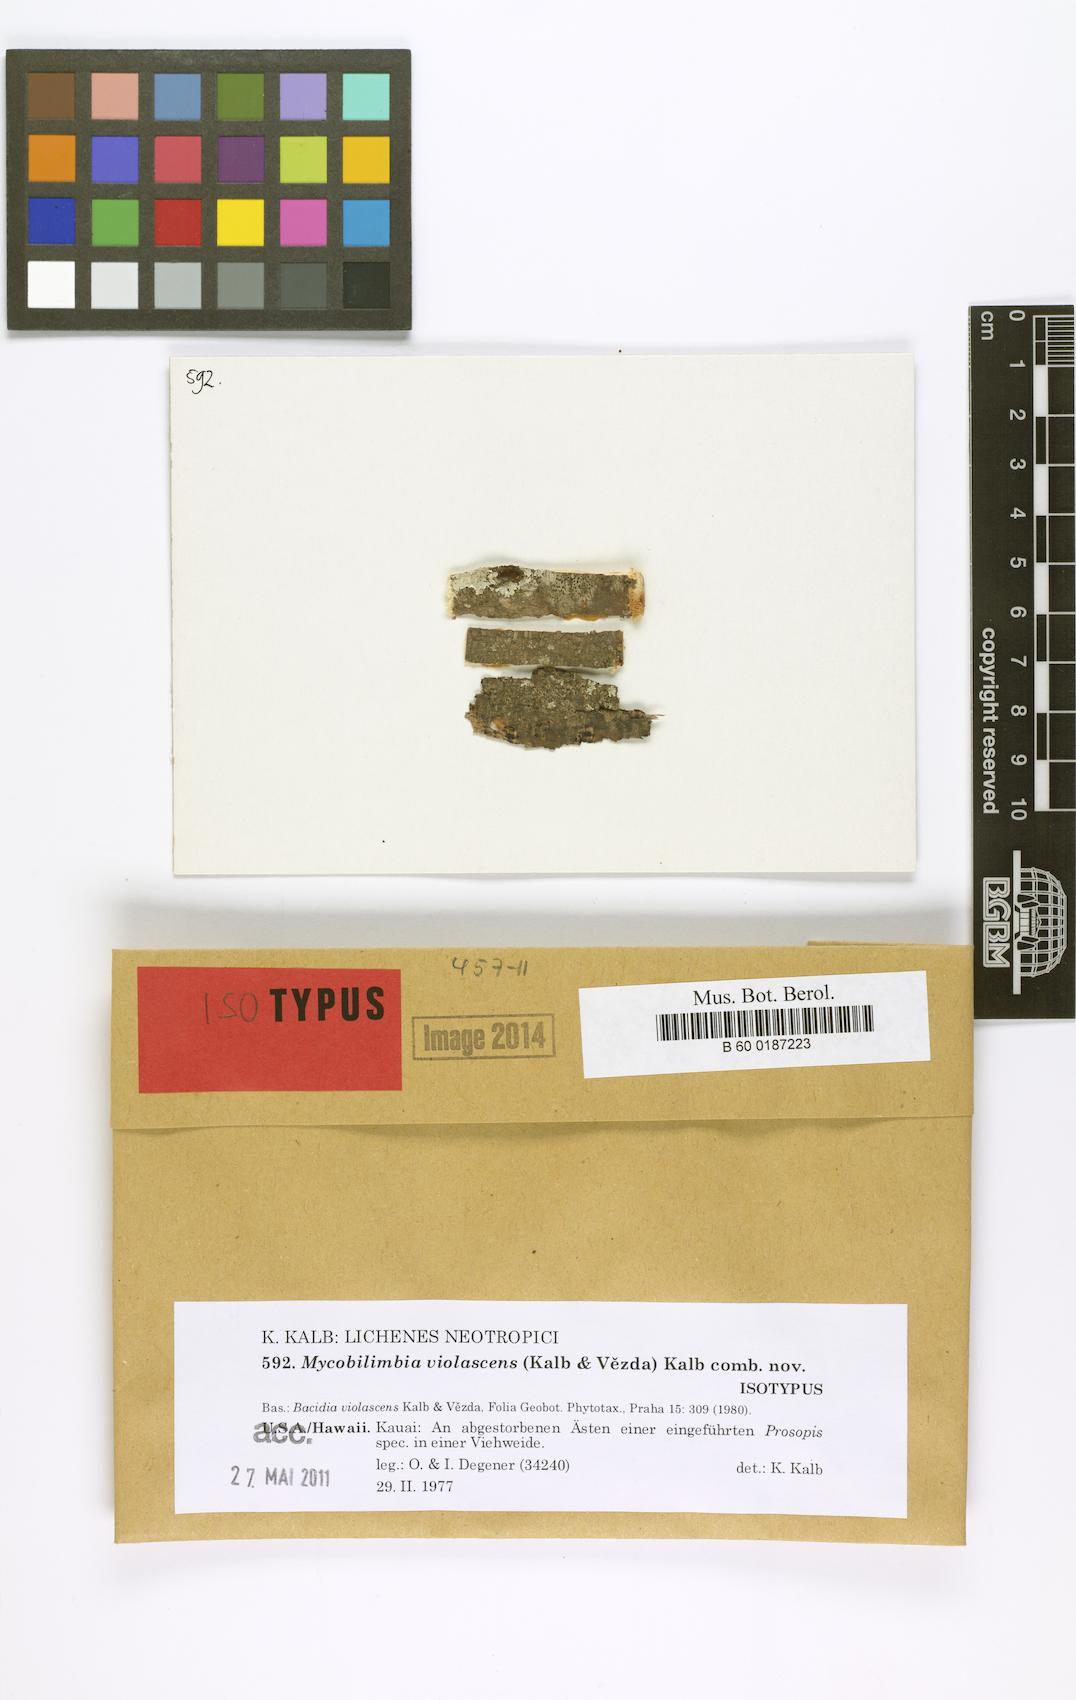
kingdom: Fungi
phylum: Ascomycota
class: Lecanoromycetes
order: Lecanorales
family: Ramalinaceae
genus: Mycobilimbia
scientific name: Mycobilimbia violascens
